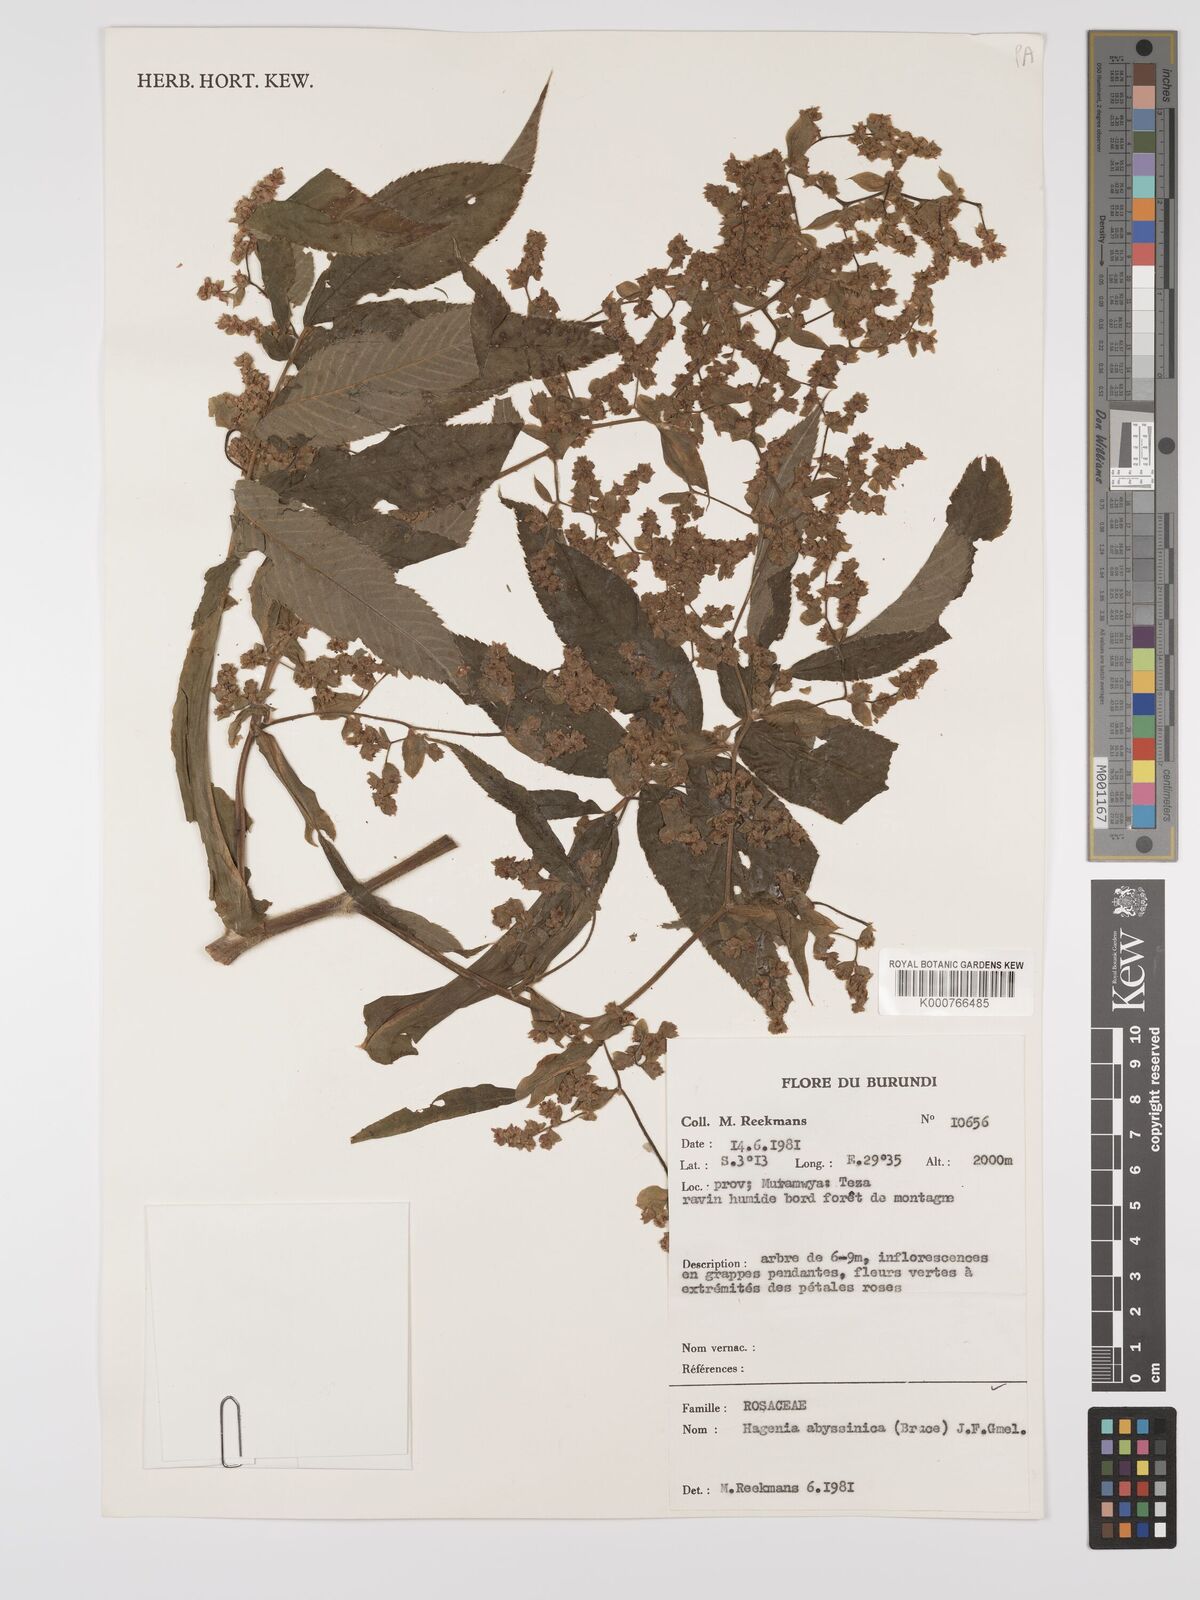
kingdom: Plantae
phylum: Tracheophyta
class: Magnoliopsida
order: Rosales
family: Rosaceae
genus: Hagenia
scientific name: Hagenia abyssinica
